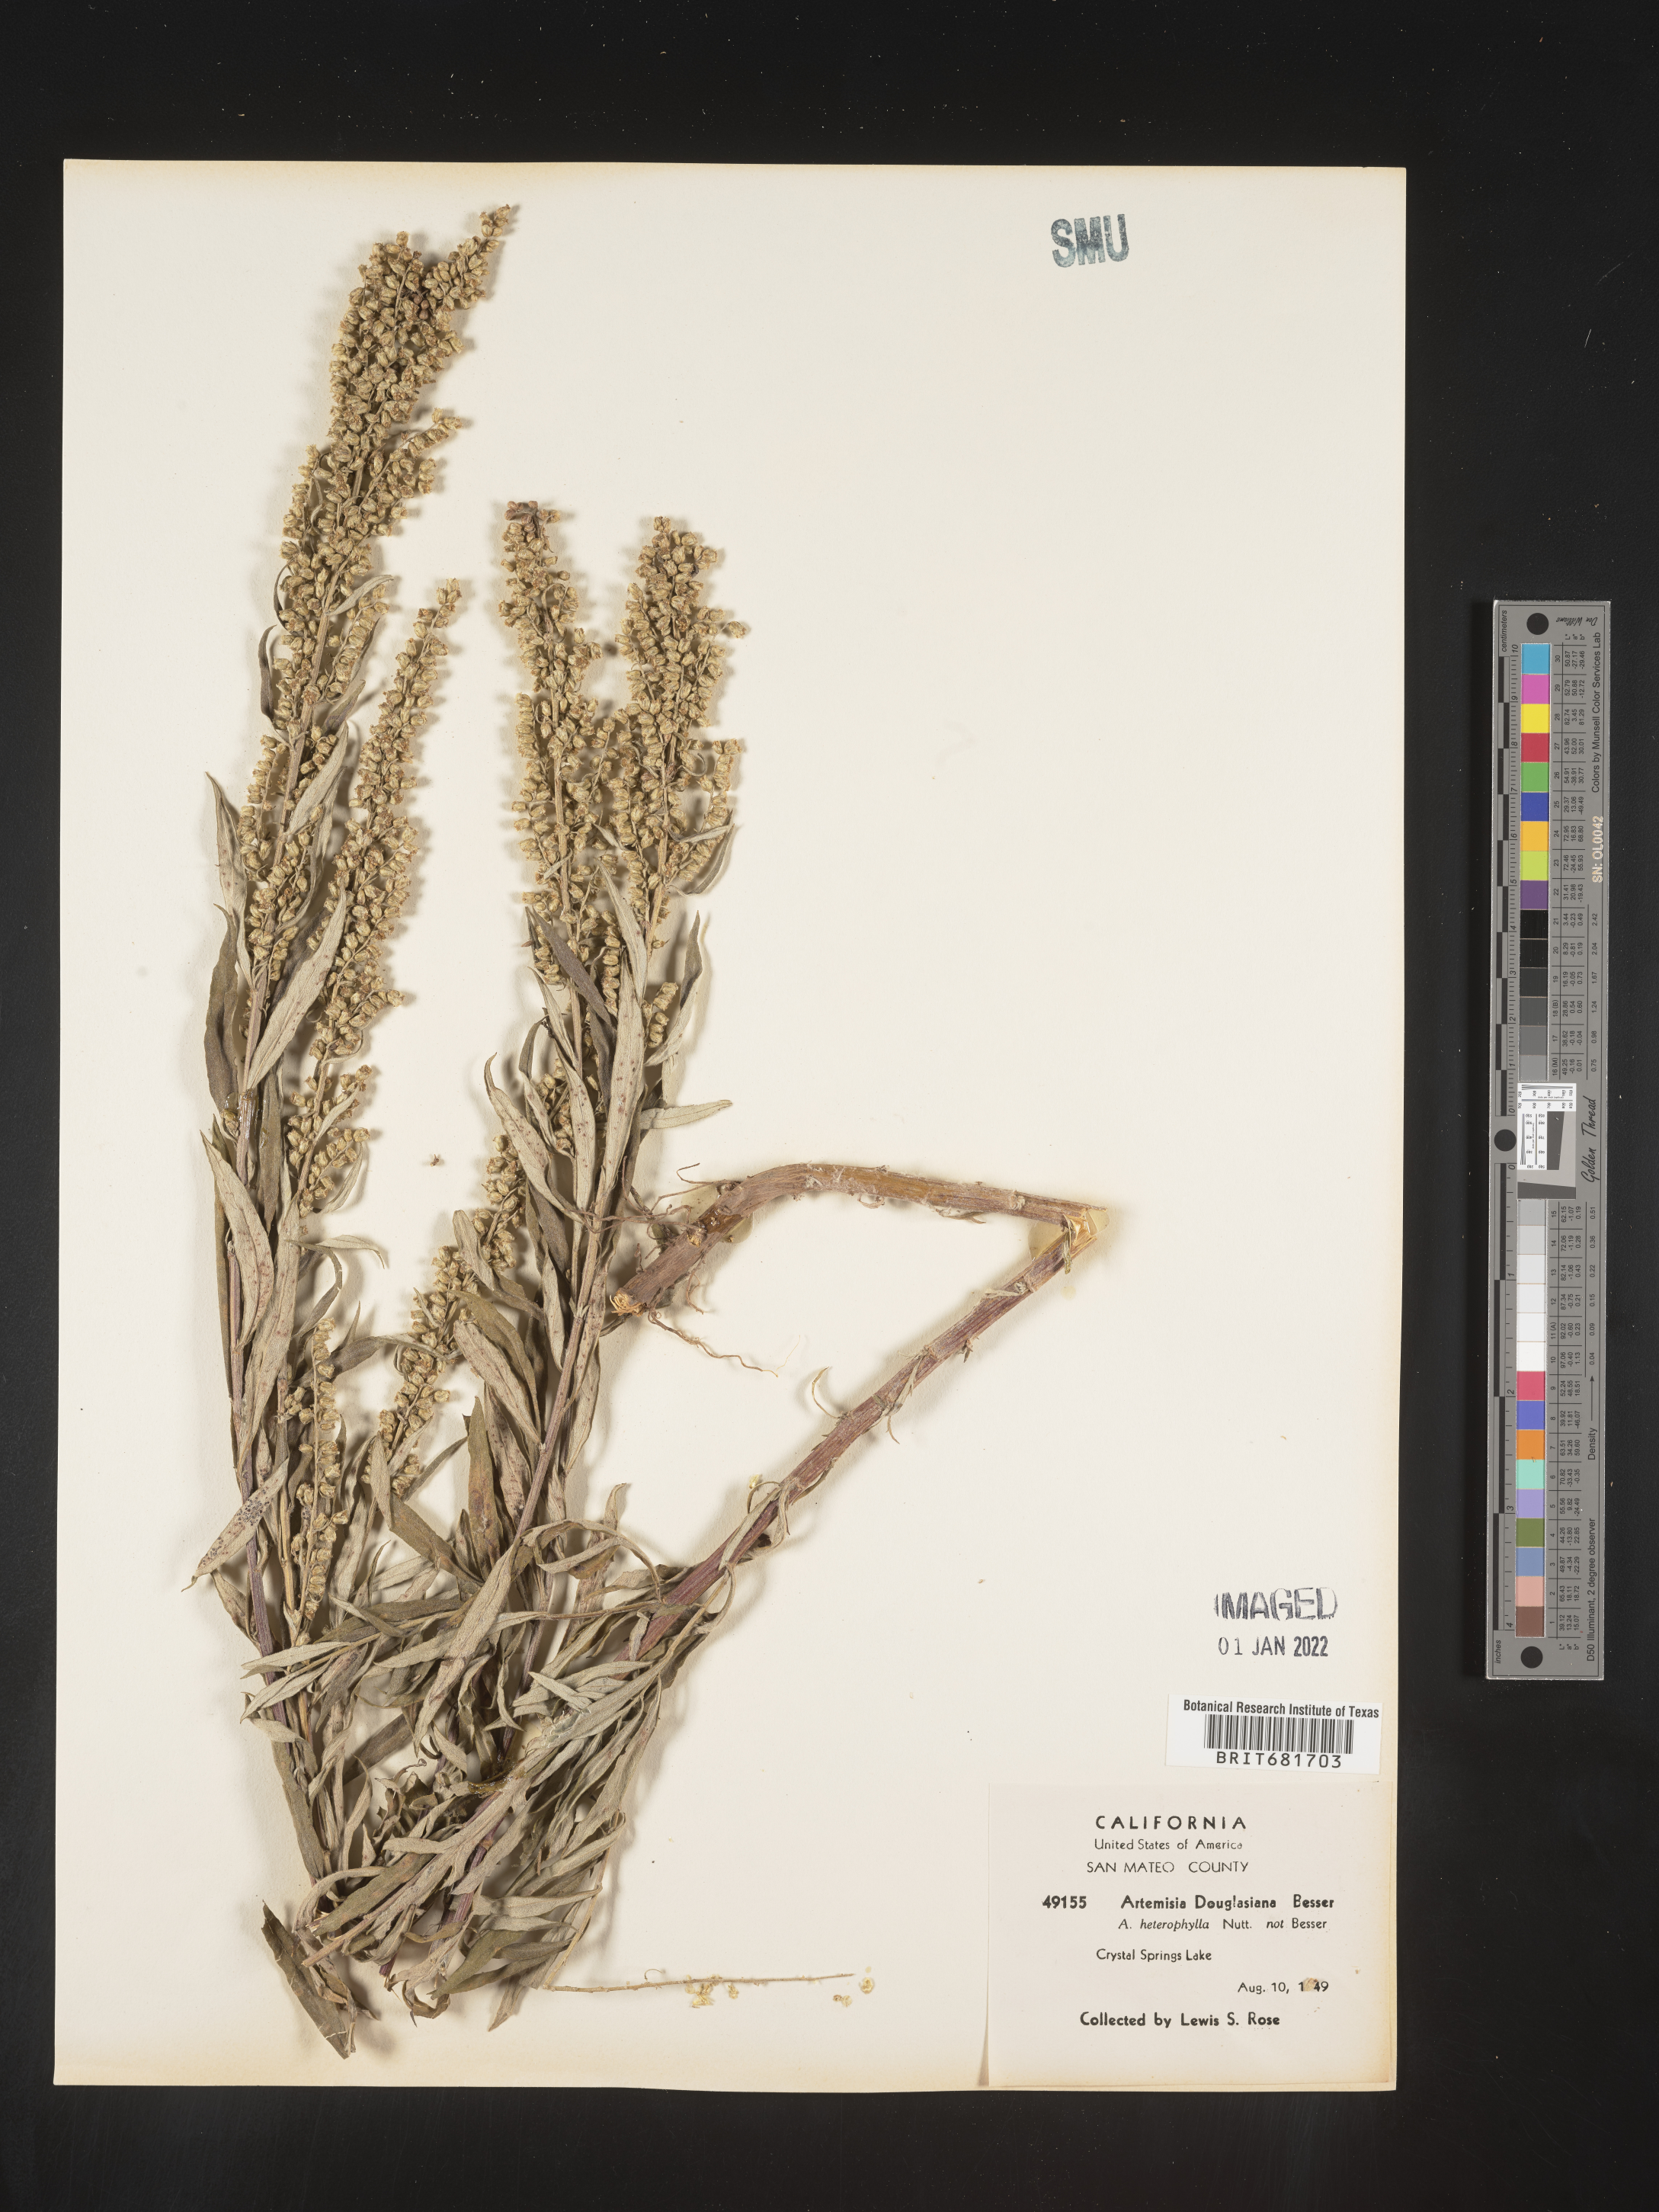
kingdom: Plantae
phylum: Tracheophyta
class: Magnoliopsida
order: Asterales
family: Asteraceae
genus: Artemisia
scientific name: Artemisia douglasiana
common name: Northwest mugwort
